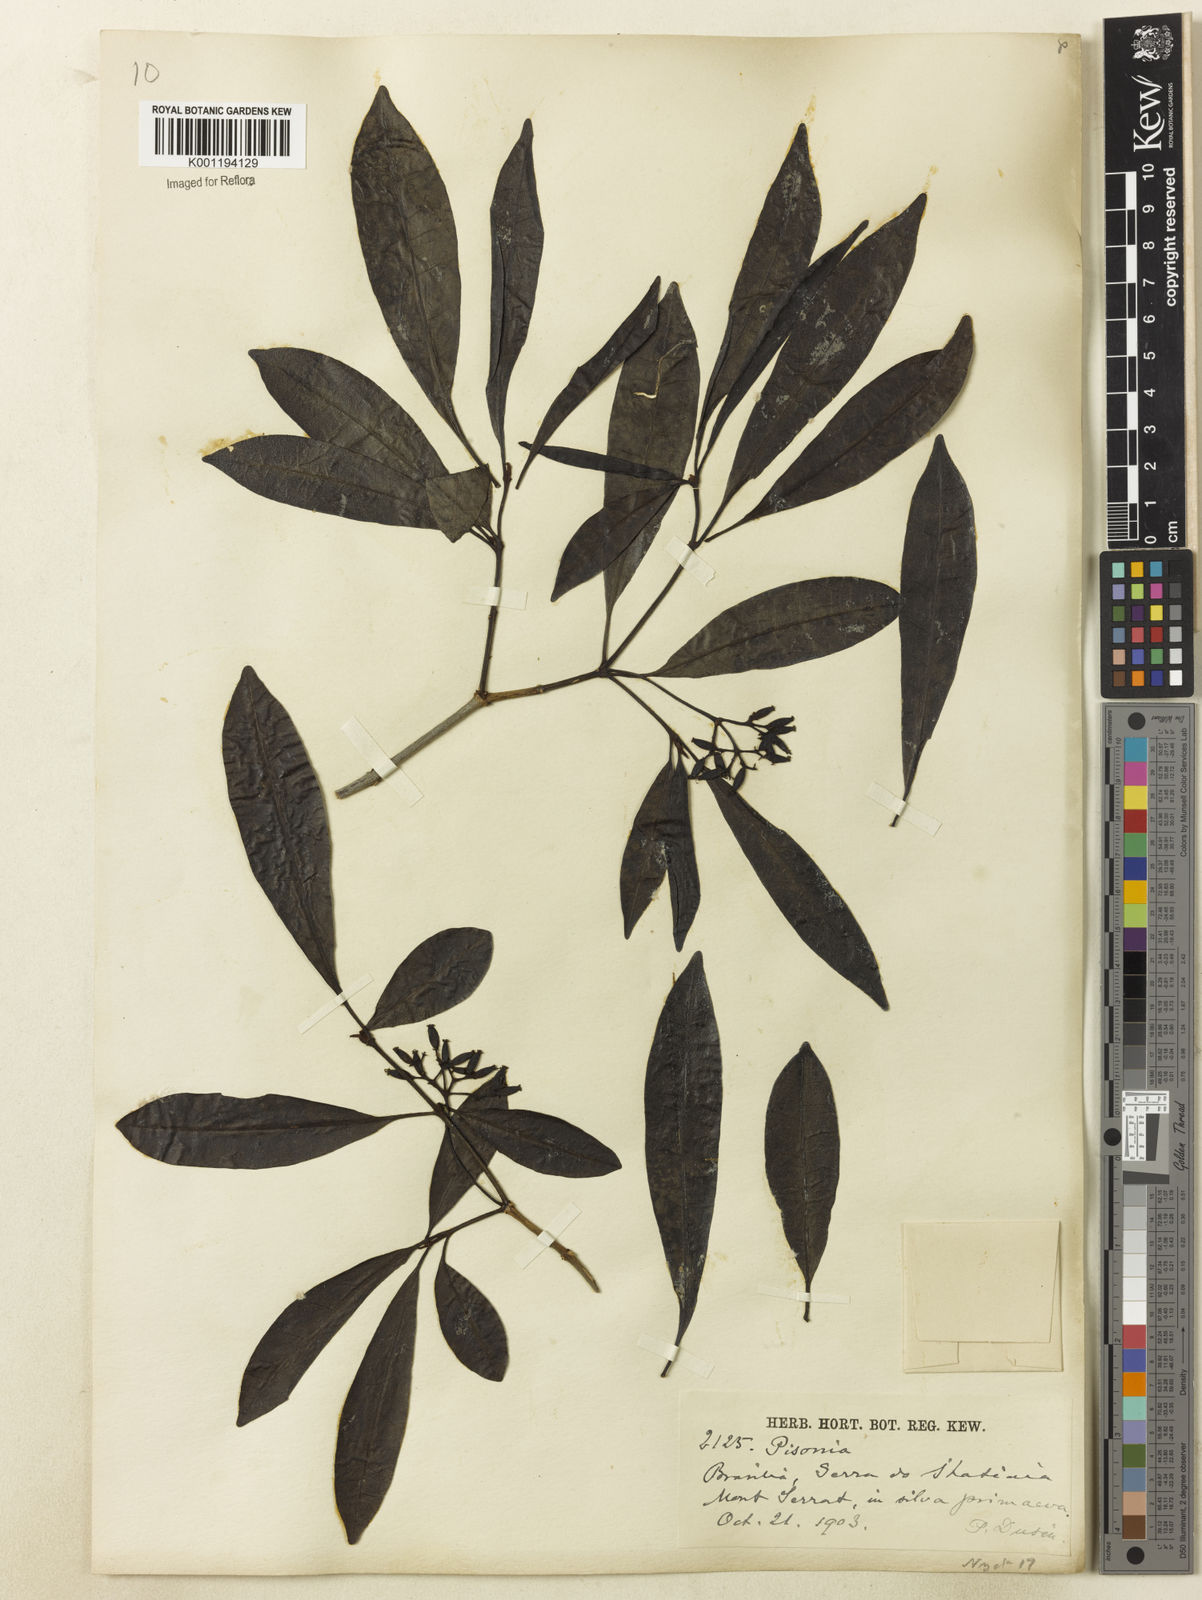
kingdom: Plantae
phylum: Tracheophyta
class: Magnoliopsida
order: Caryophyllales
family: Nyctaginaceae
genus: Guapira
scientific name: Guapira
